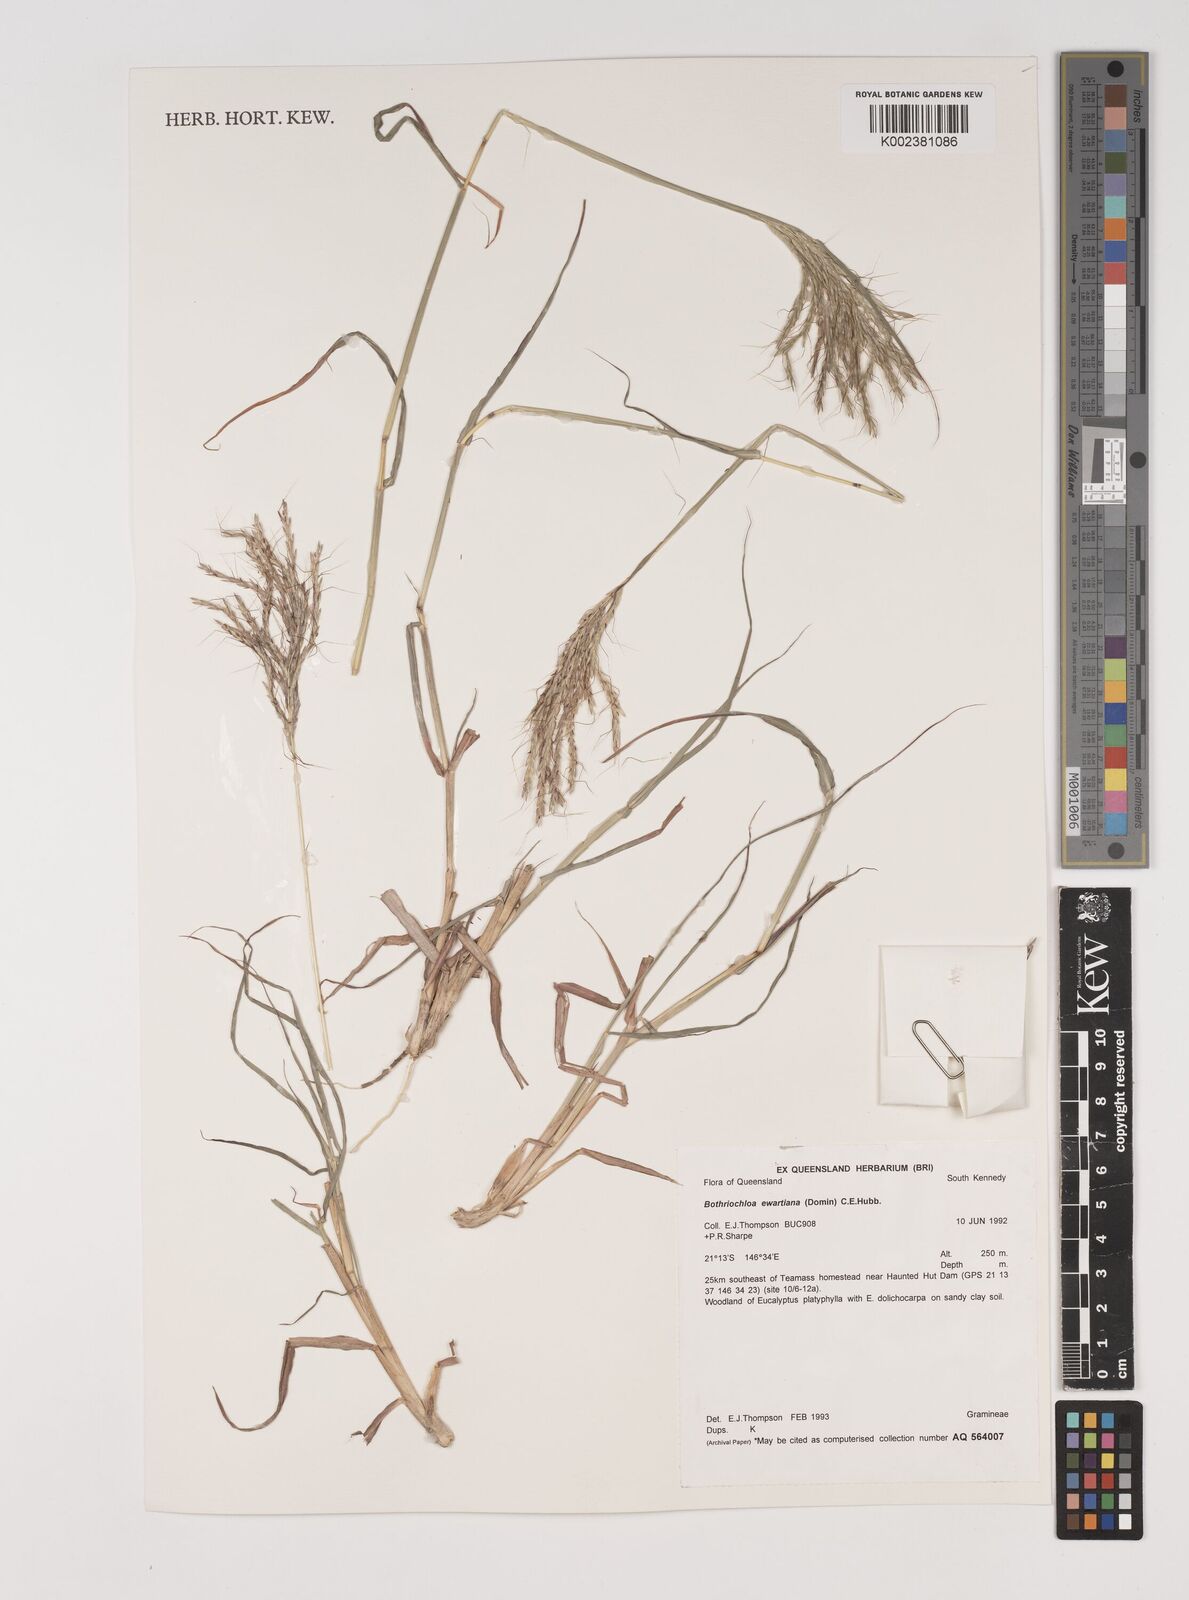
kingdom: Plantae
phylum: Tracheophyta
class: Liliopsida
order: Poales
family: Poaceae
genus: Bothriochloa
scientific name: Bothriochloa ewartiana
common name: Desert-bluegrass
